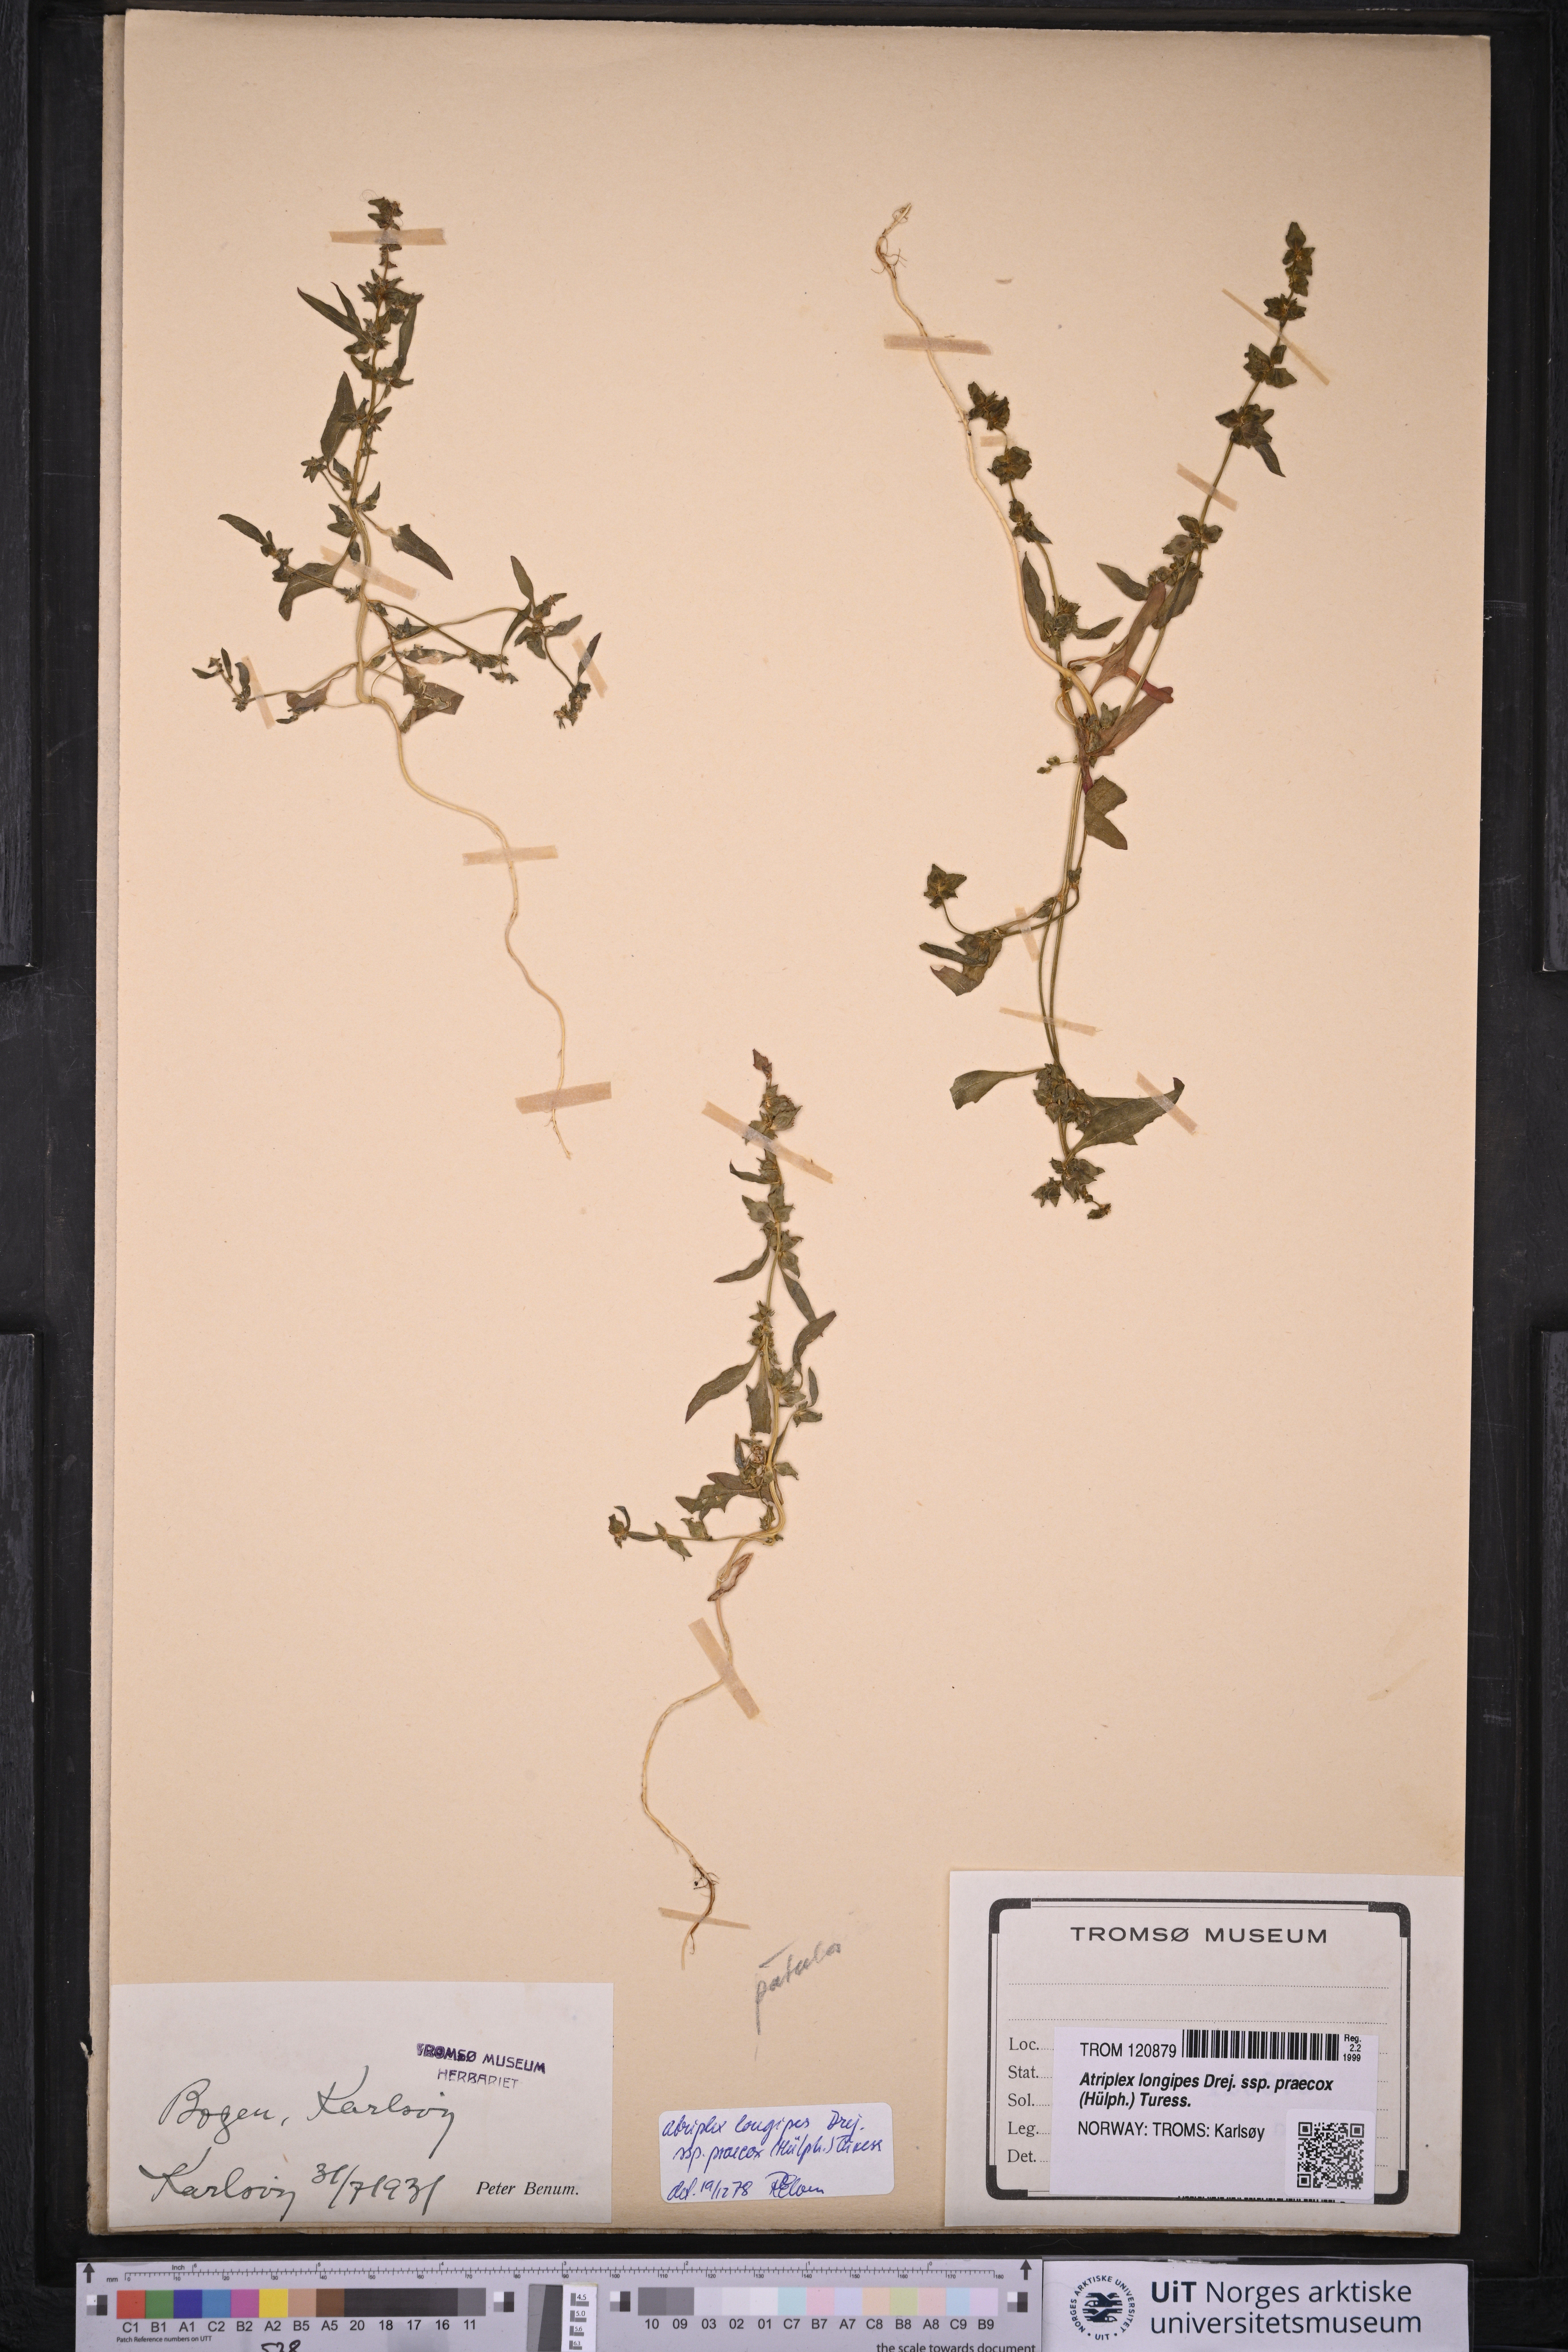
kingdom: Plantae
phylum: Tracheophyta
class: Magnoliopsida
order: Caryophyllales
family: Amaranthaceae
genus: Atriplex
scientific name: Atriplex praecox
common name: Early orache
